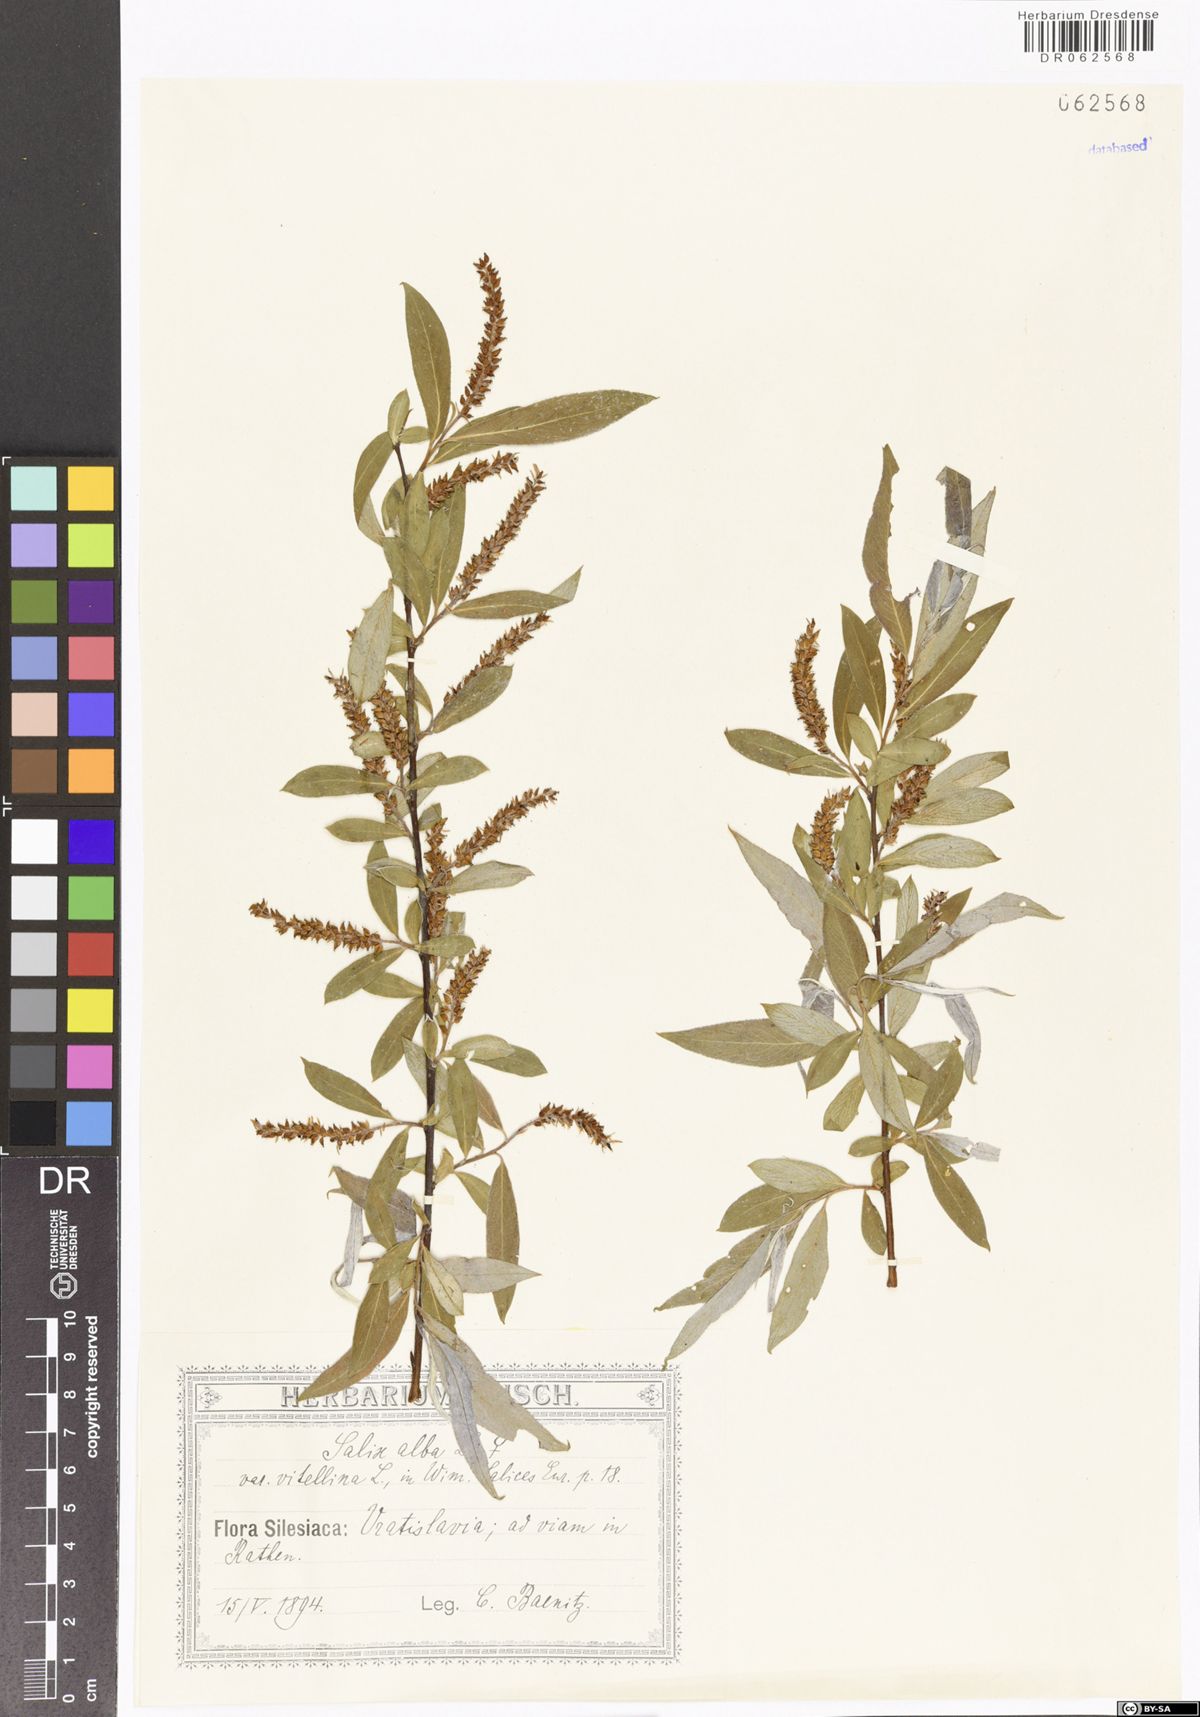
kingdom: Plantae
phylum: Tracheophyta
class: Magnoliopsida
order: Malpighiales
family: Salicaceae
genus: Salix
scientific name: Salix alba
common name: White willow
